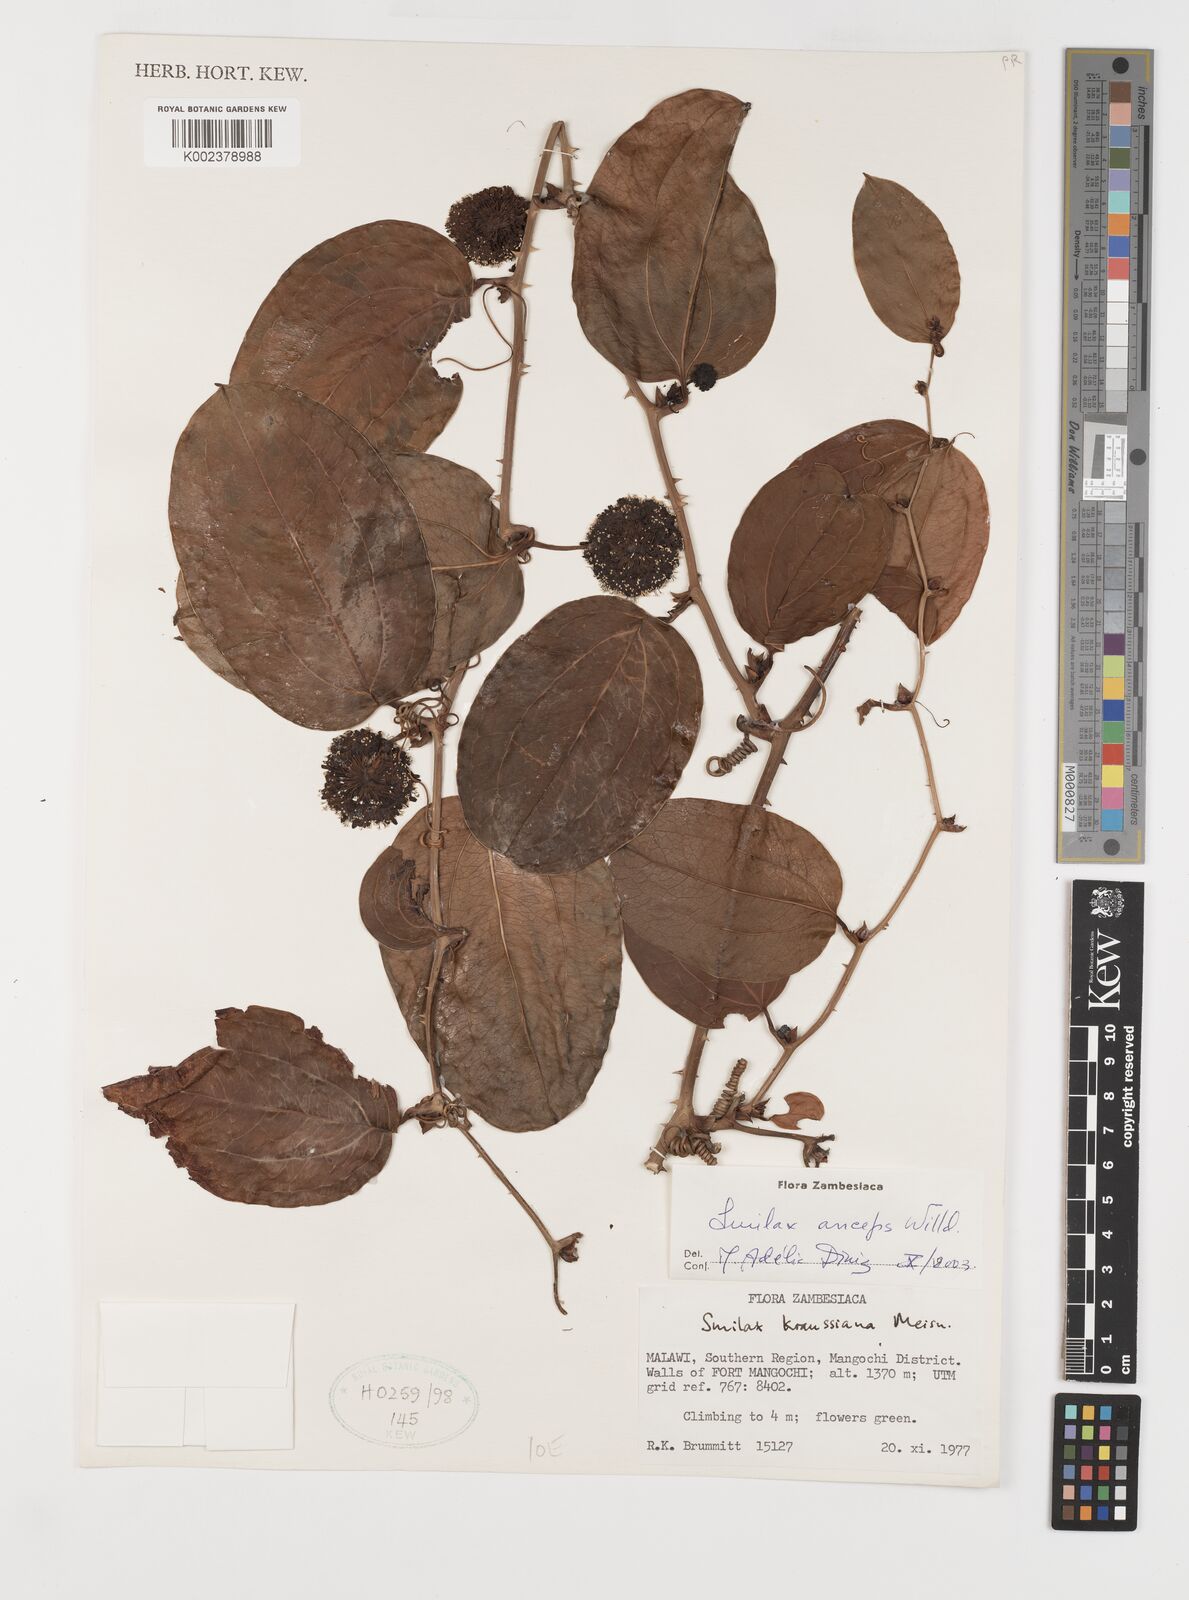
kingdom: Plantae
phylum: Tracheophyta
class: Liliopsida
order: Liliales
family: Smilacaceae
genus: Smilax
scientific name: Smilax anceps
